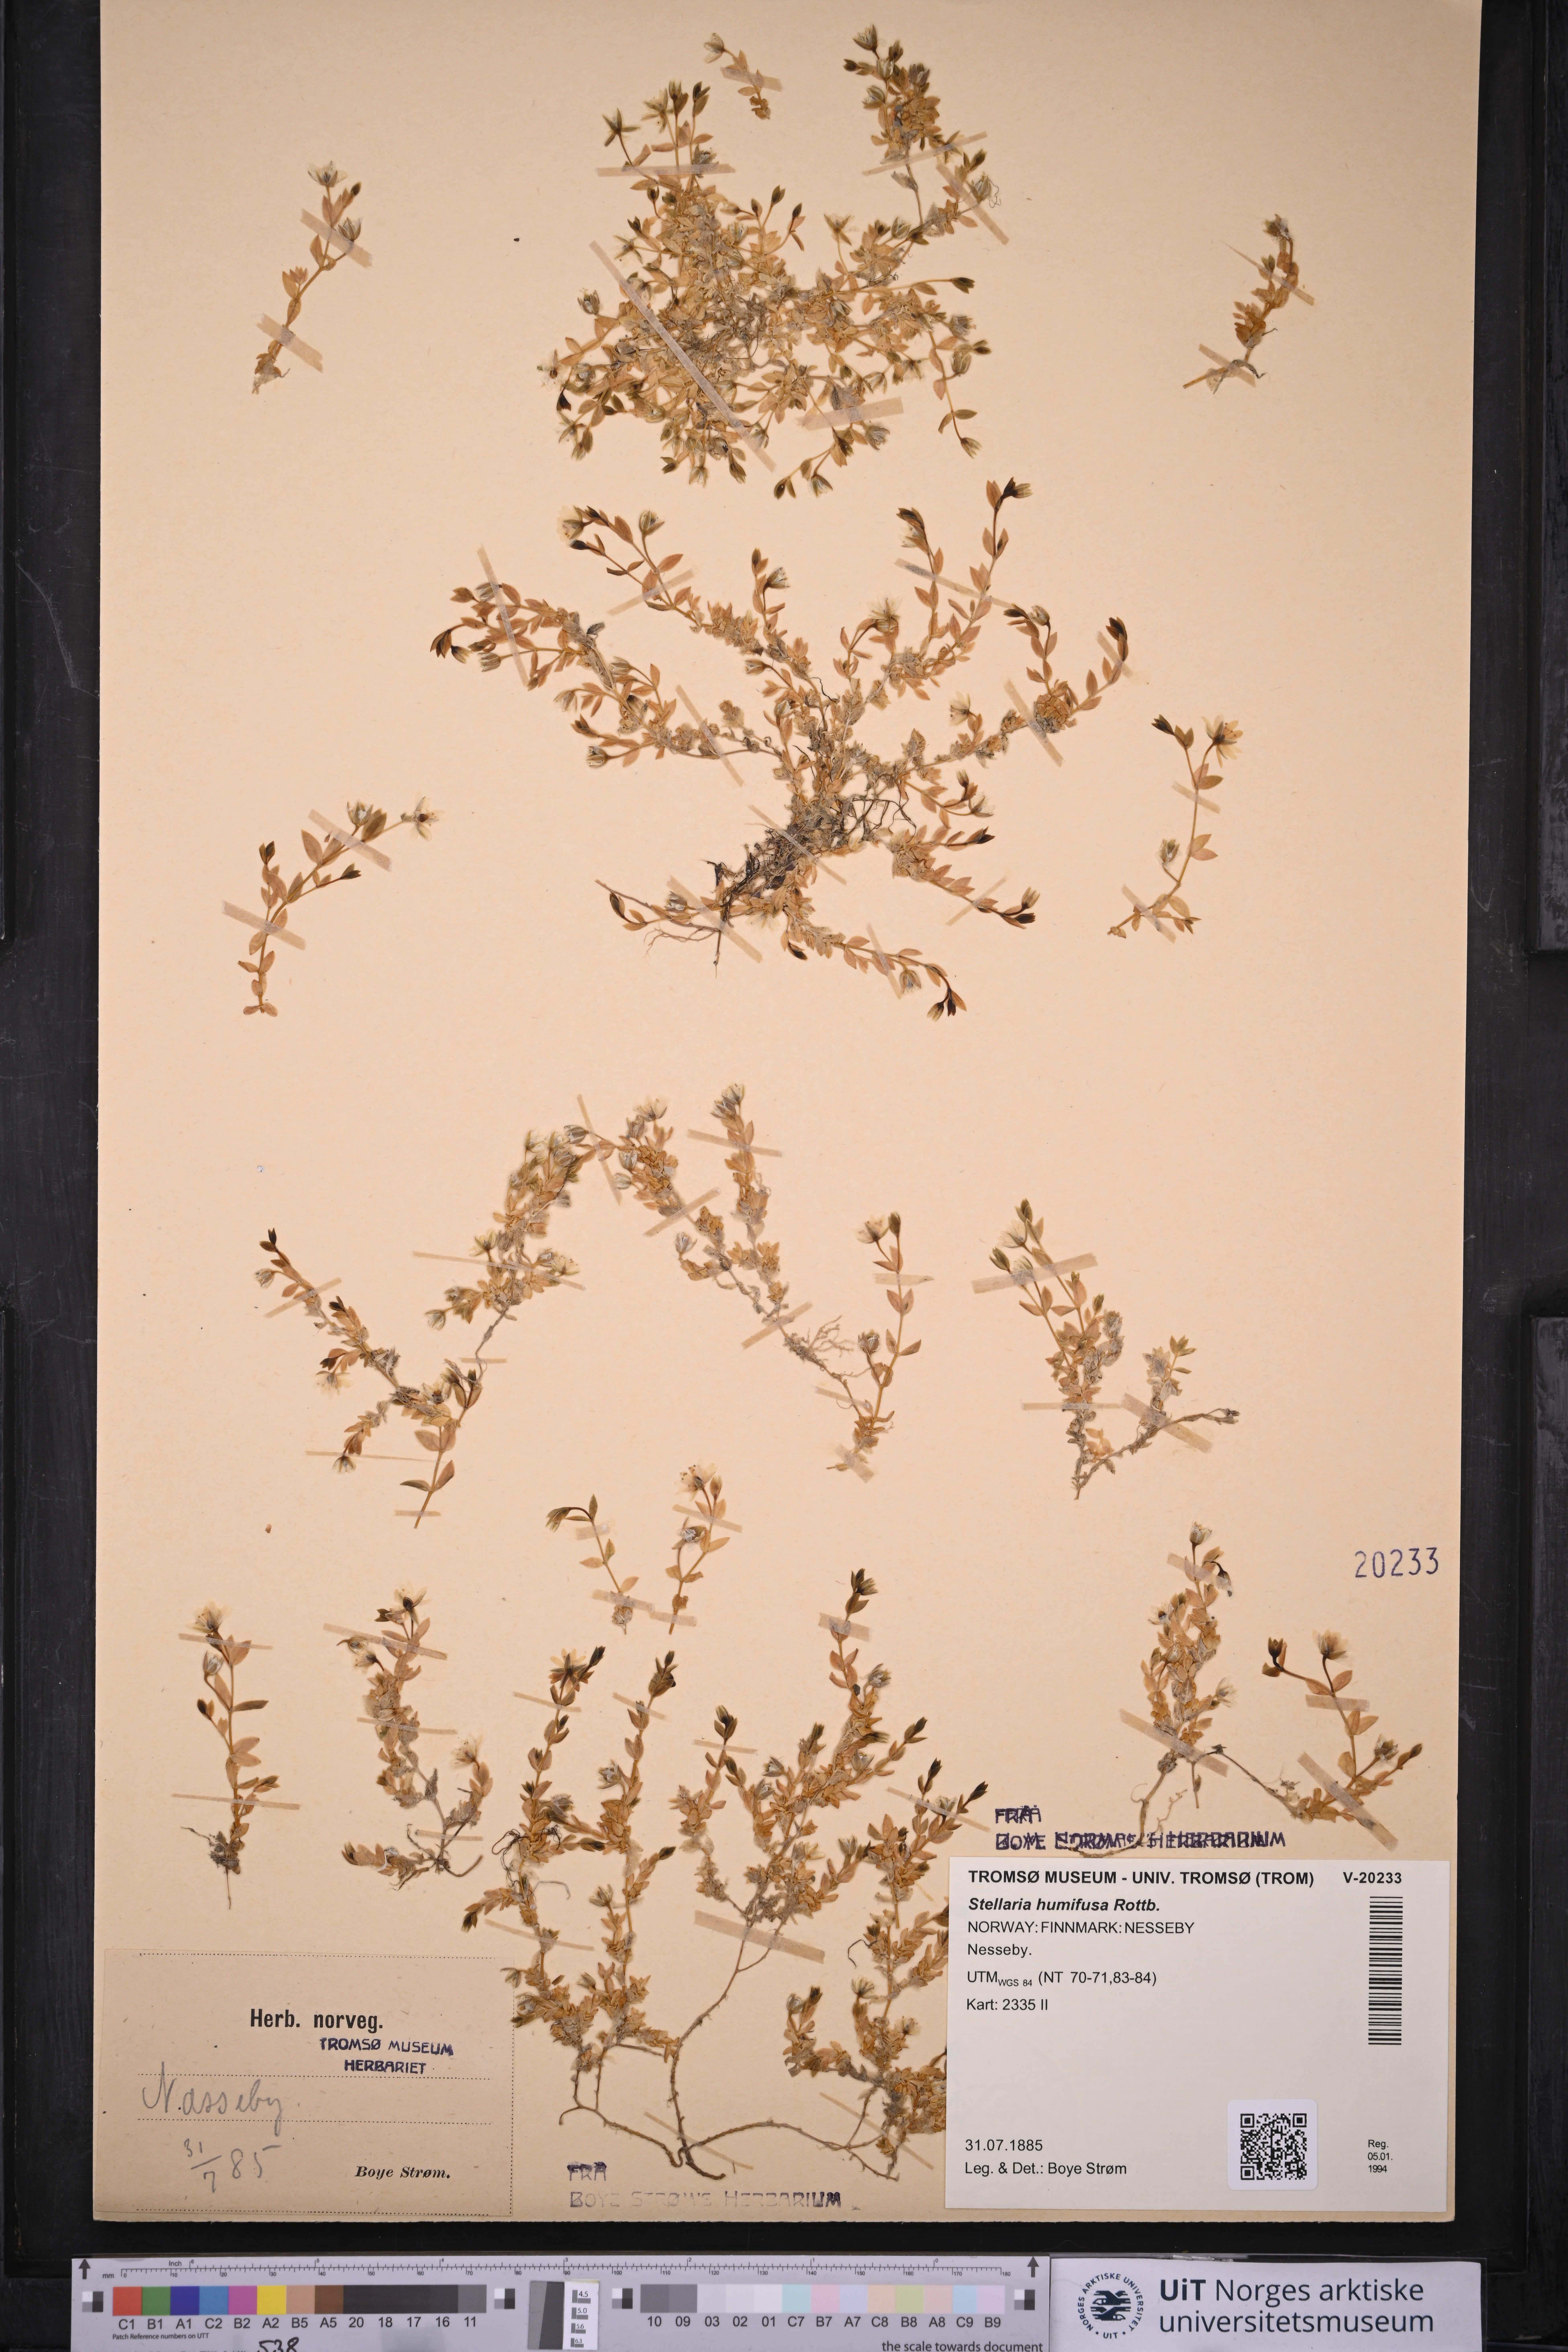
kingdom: Plantae
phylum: Tracheophyta
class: Magnoliopsida
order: Caryophyllales
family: Caryophyllaceae
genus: Stellaria
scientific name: Stellaria humifusa
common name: Creeping starwort
